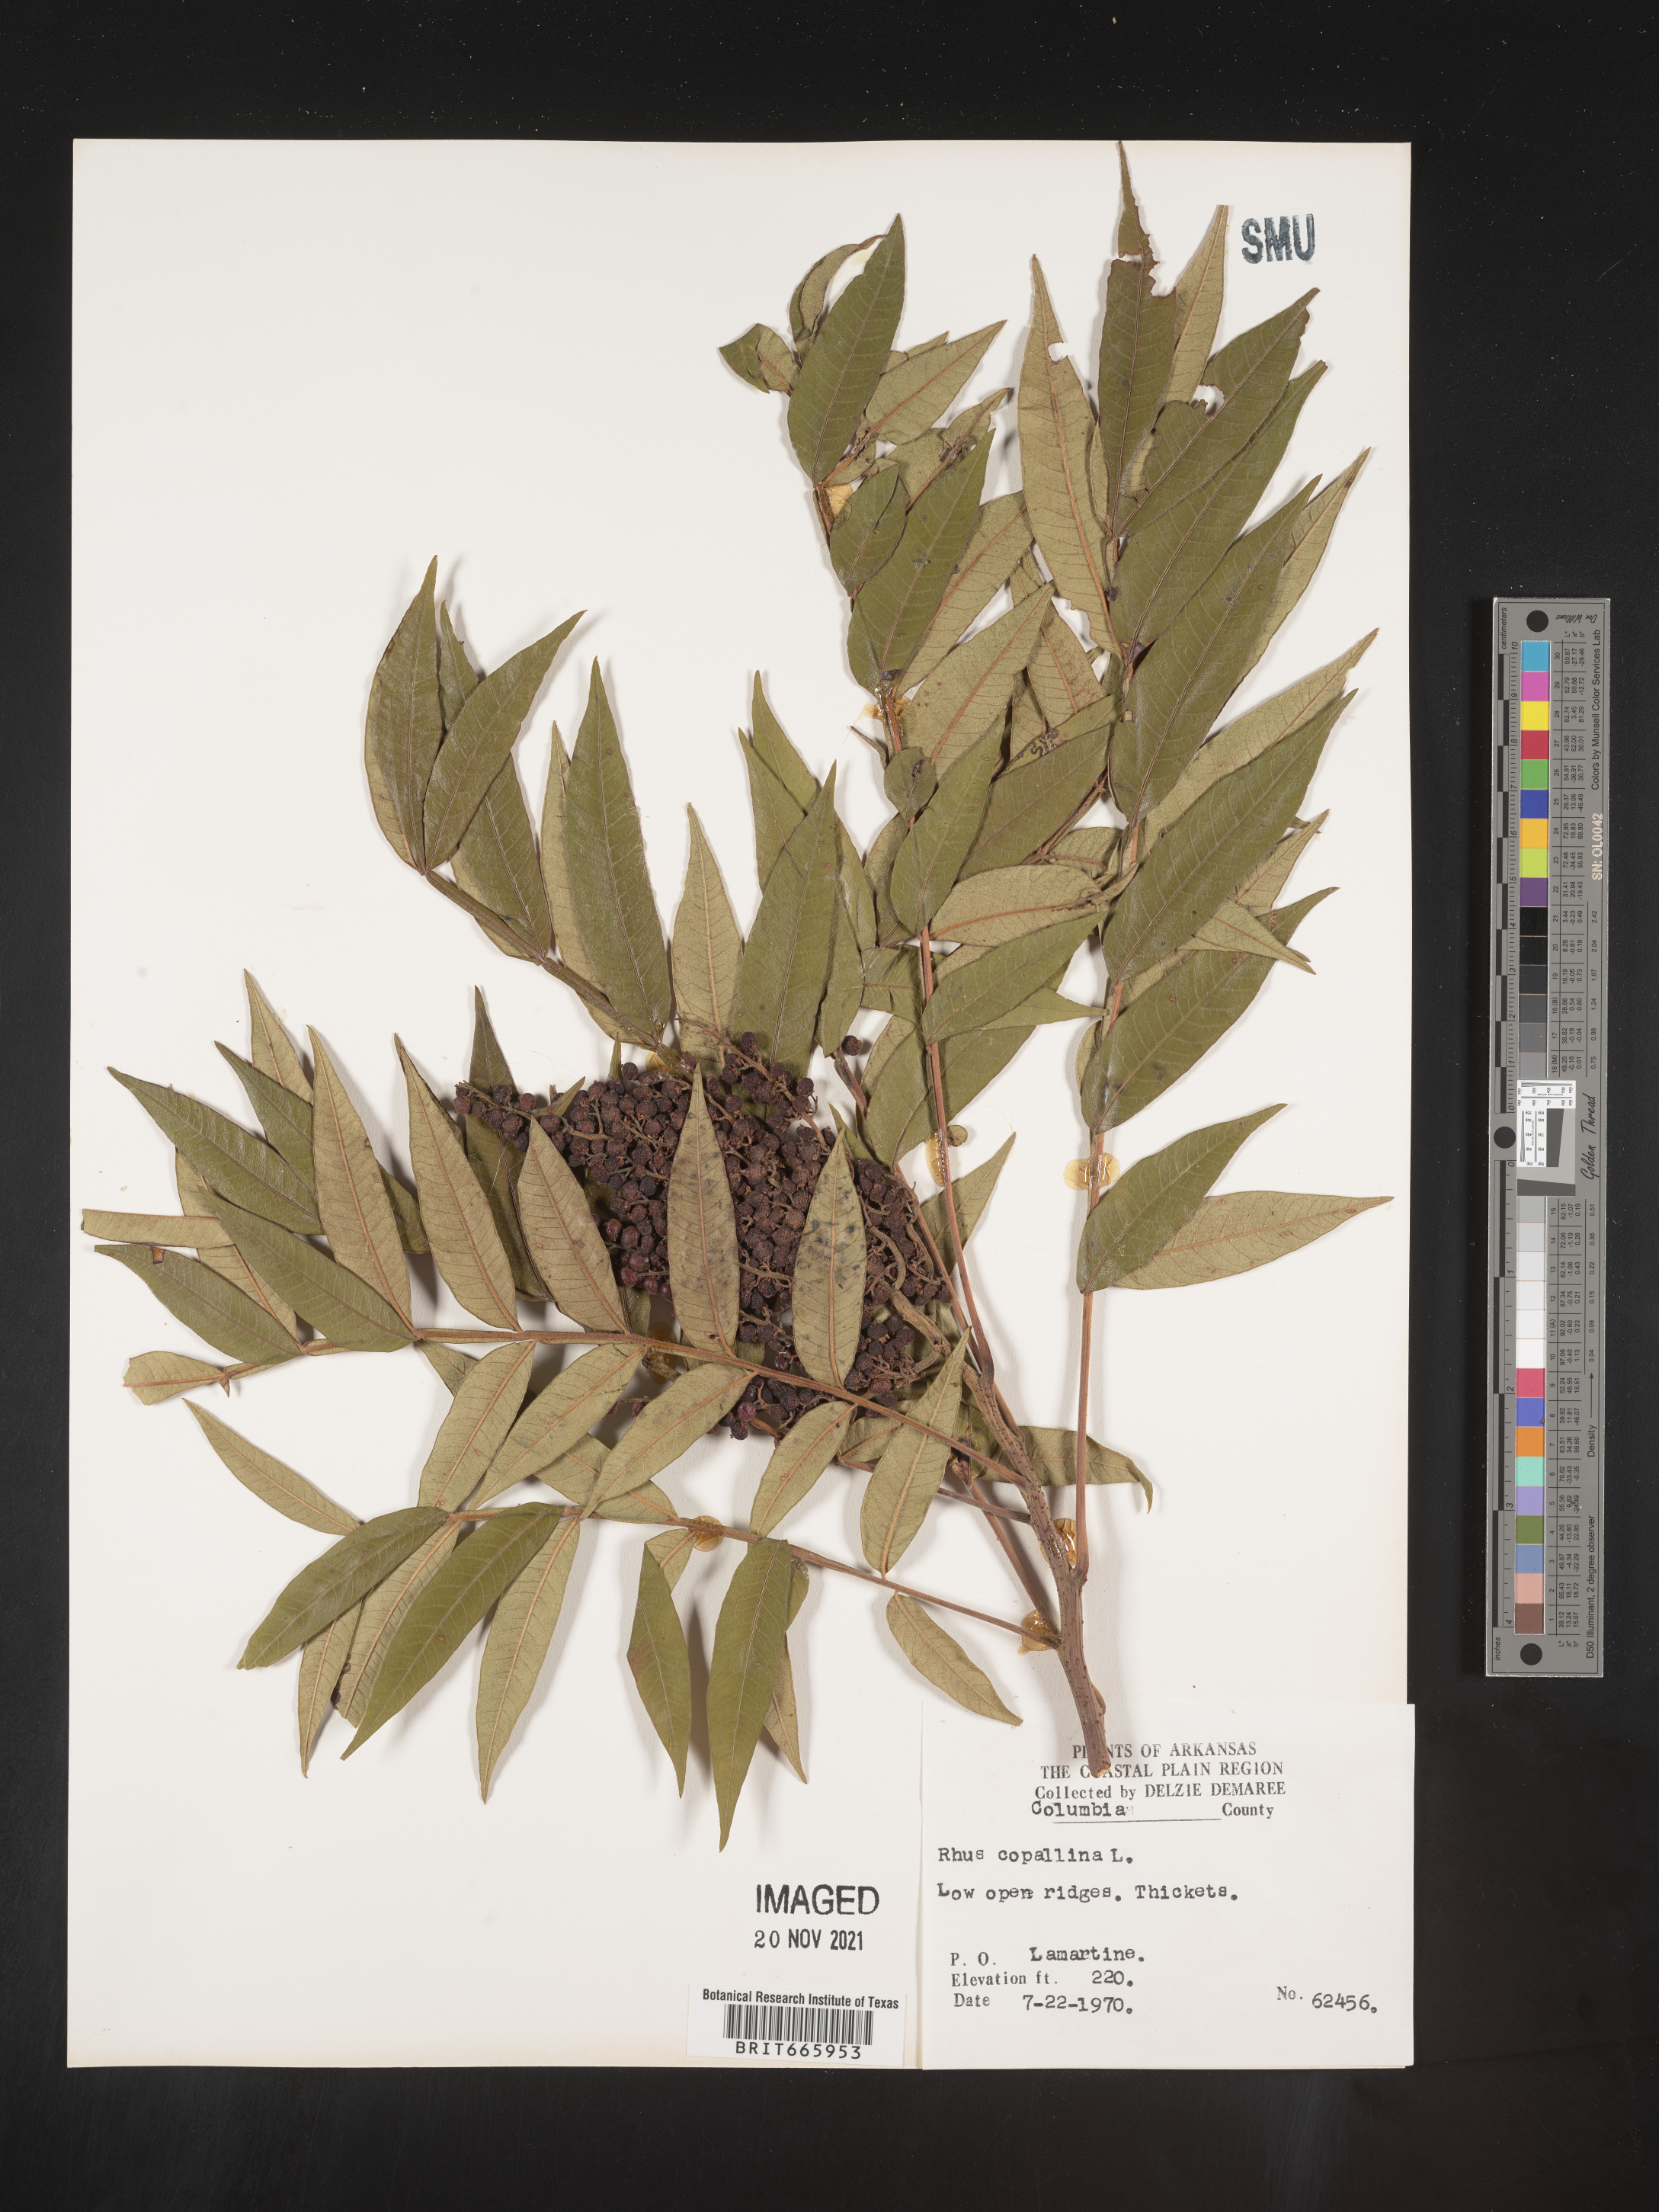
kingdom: Plantae
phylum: Tracheophyta
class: Magnoliopsida
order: Sapindales
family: Anacardiaceae
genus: Rhus
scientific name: Rhus copallina
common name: Shining sumac
